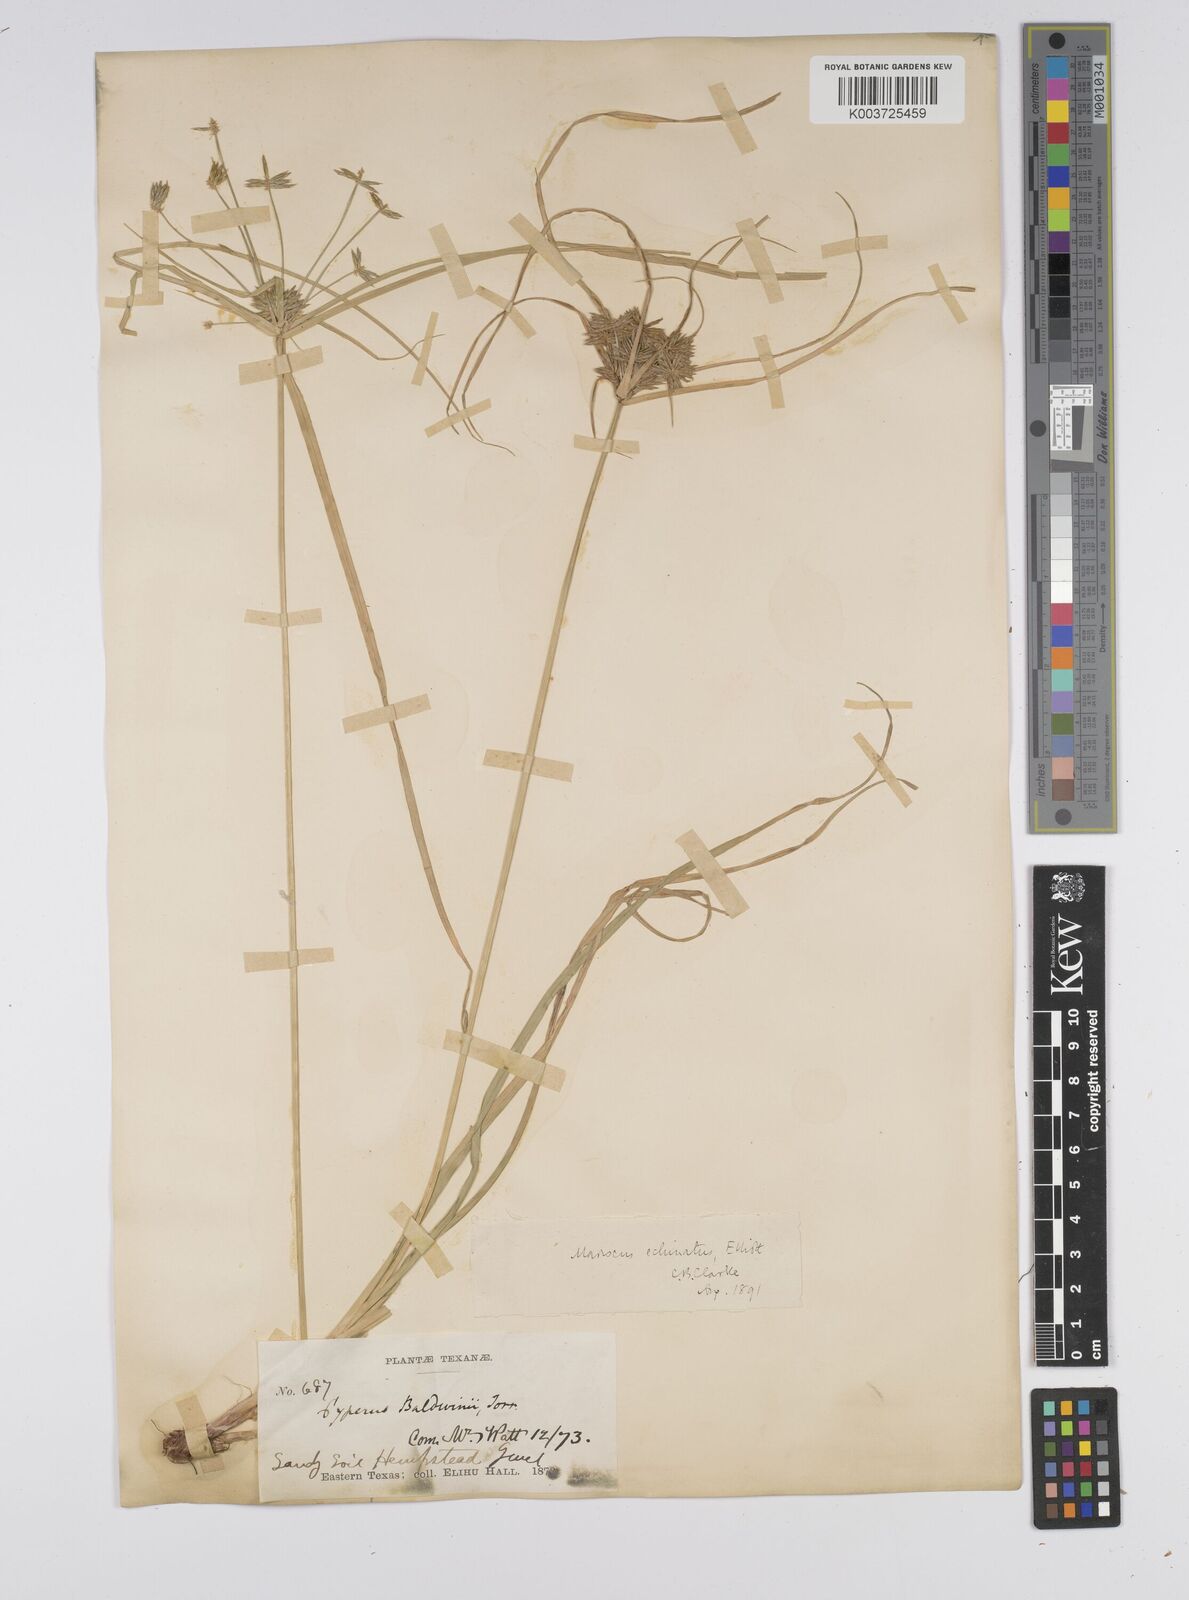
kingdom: Plantae
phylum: Tracheophyta
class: Liliopsida
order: Poales
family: Cyperaceae
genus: Cyperus
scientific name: Cyperus luzulae
